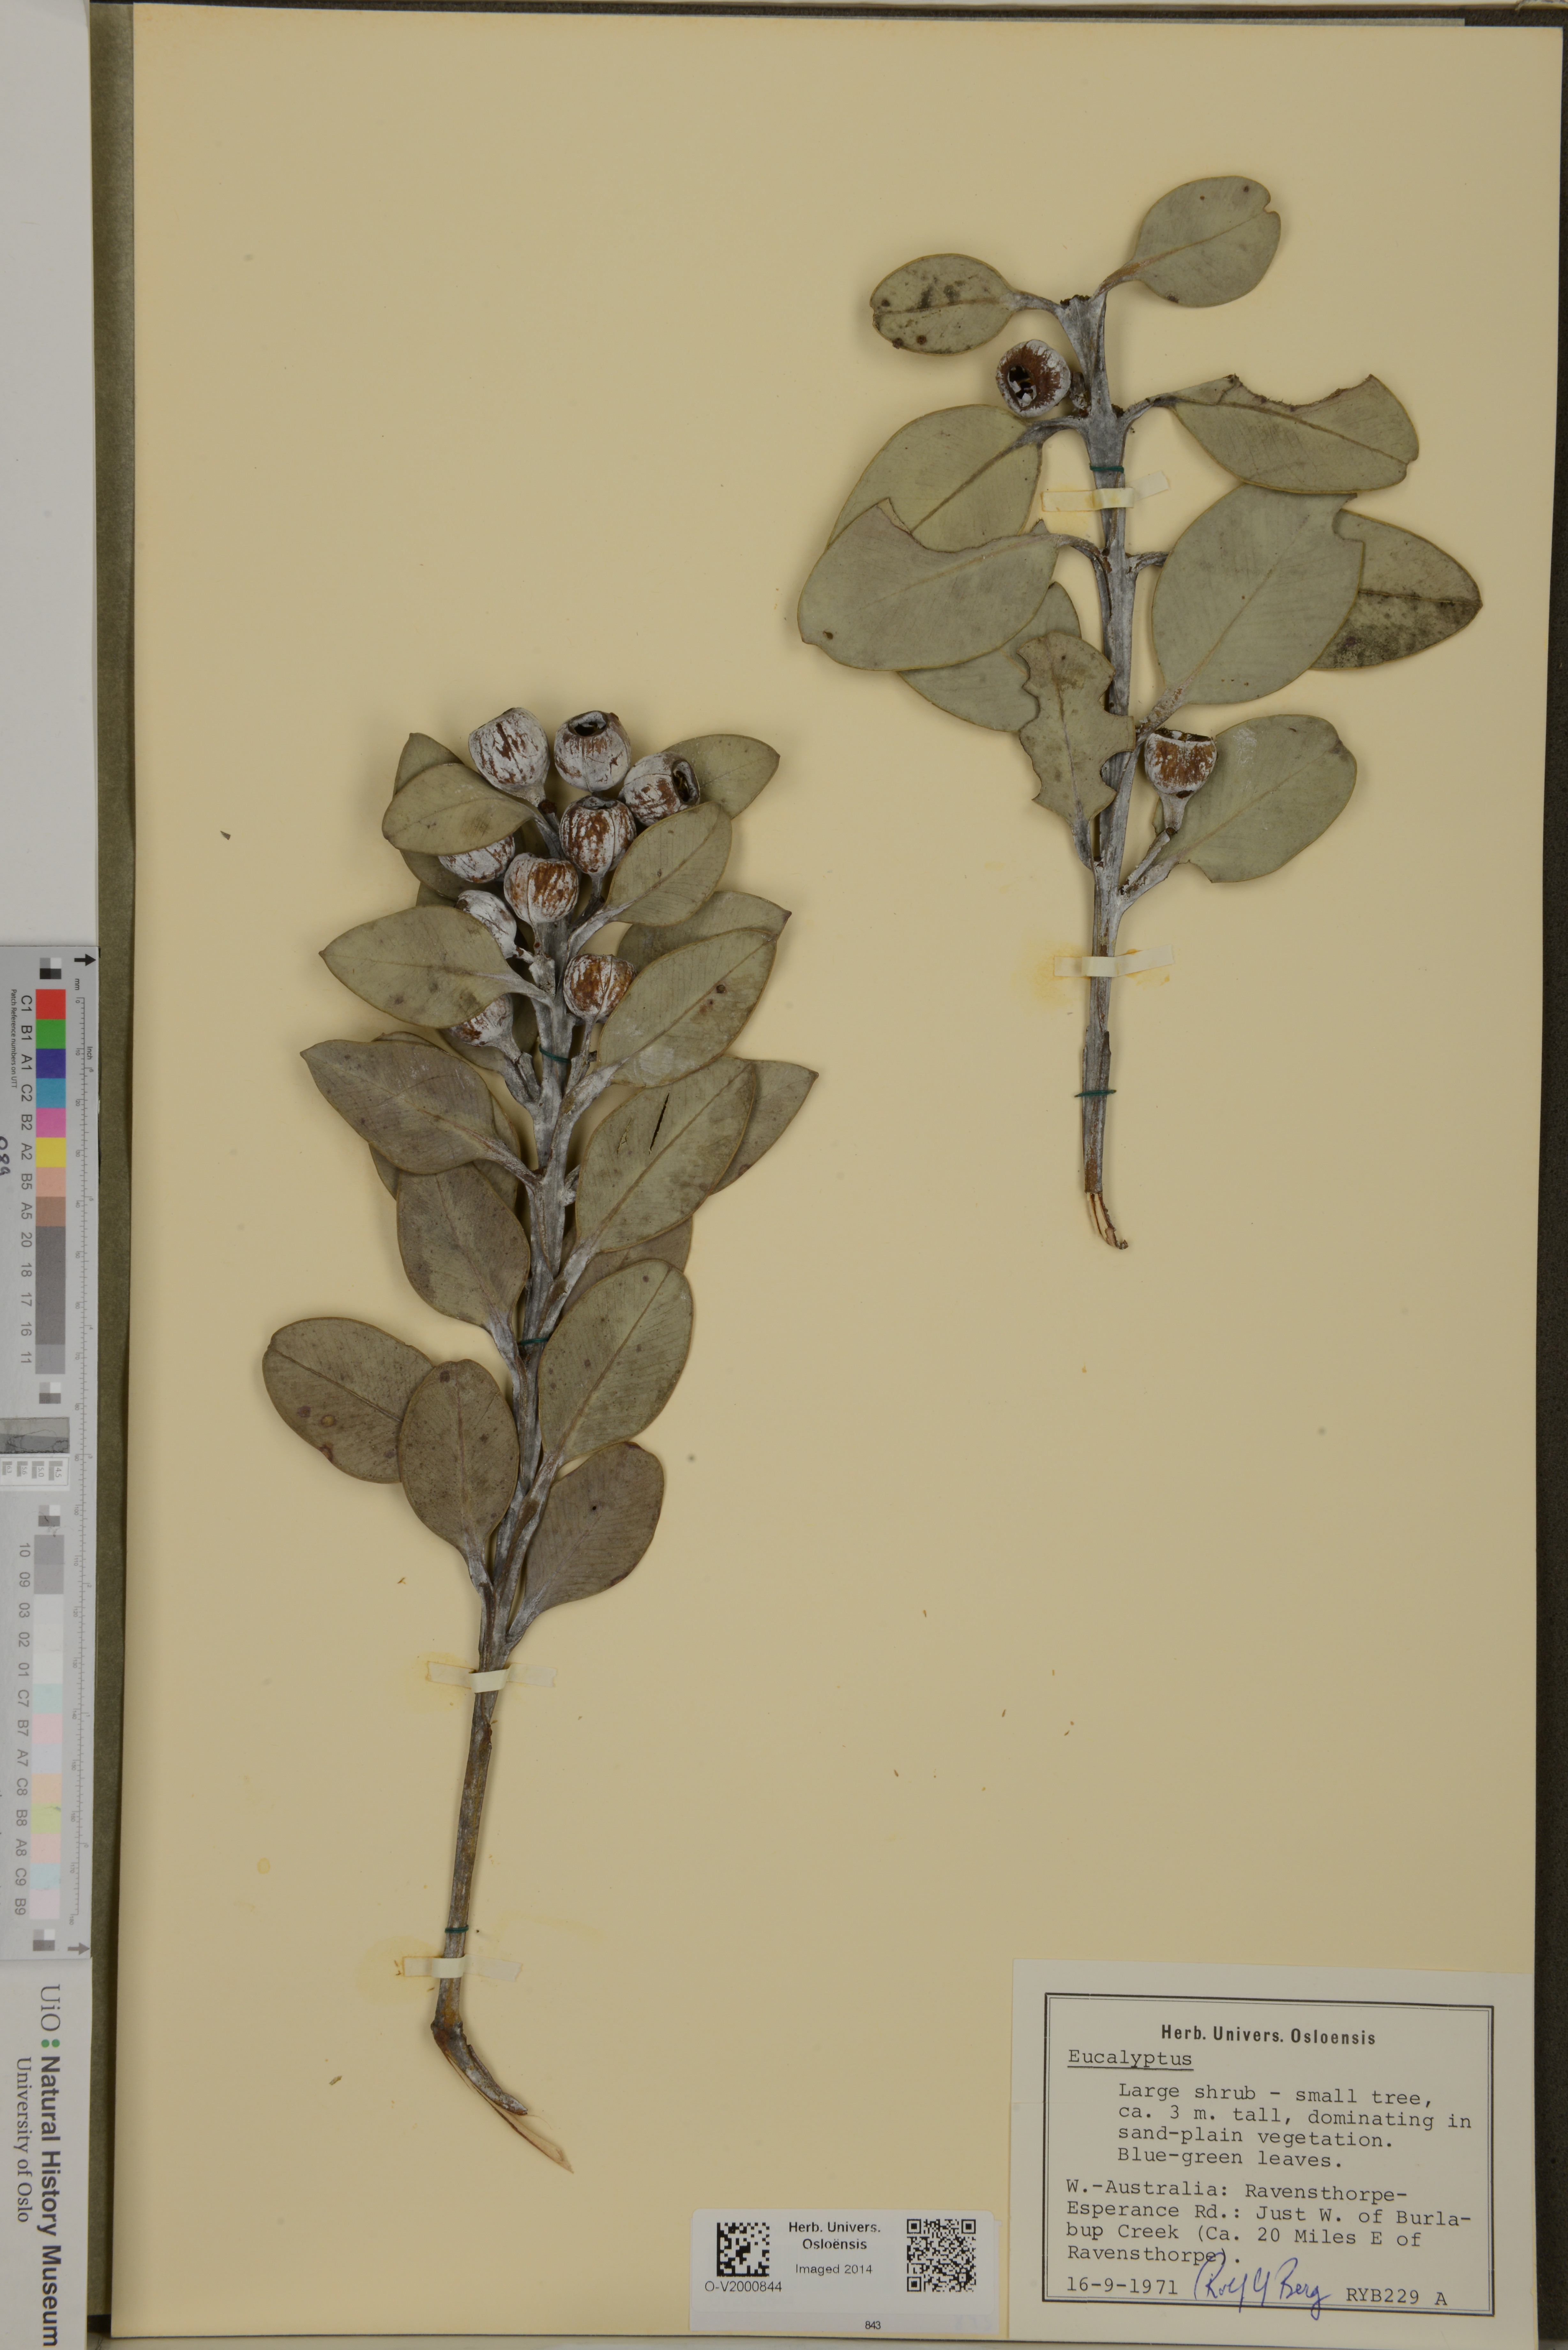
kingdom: Plantae
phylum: Tracheophyta
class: Magnoliopsida
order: Myrtales
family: Myrtaceae
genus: Eucalyptus
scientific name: Eucalyptus
